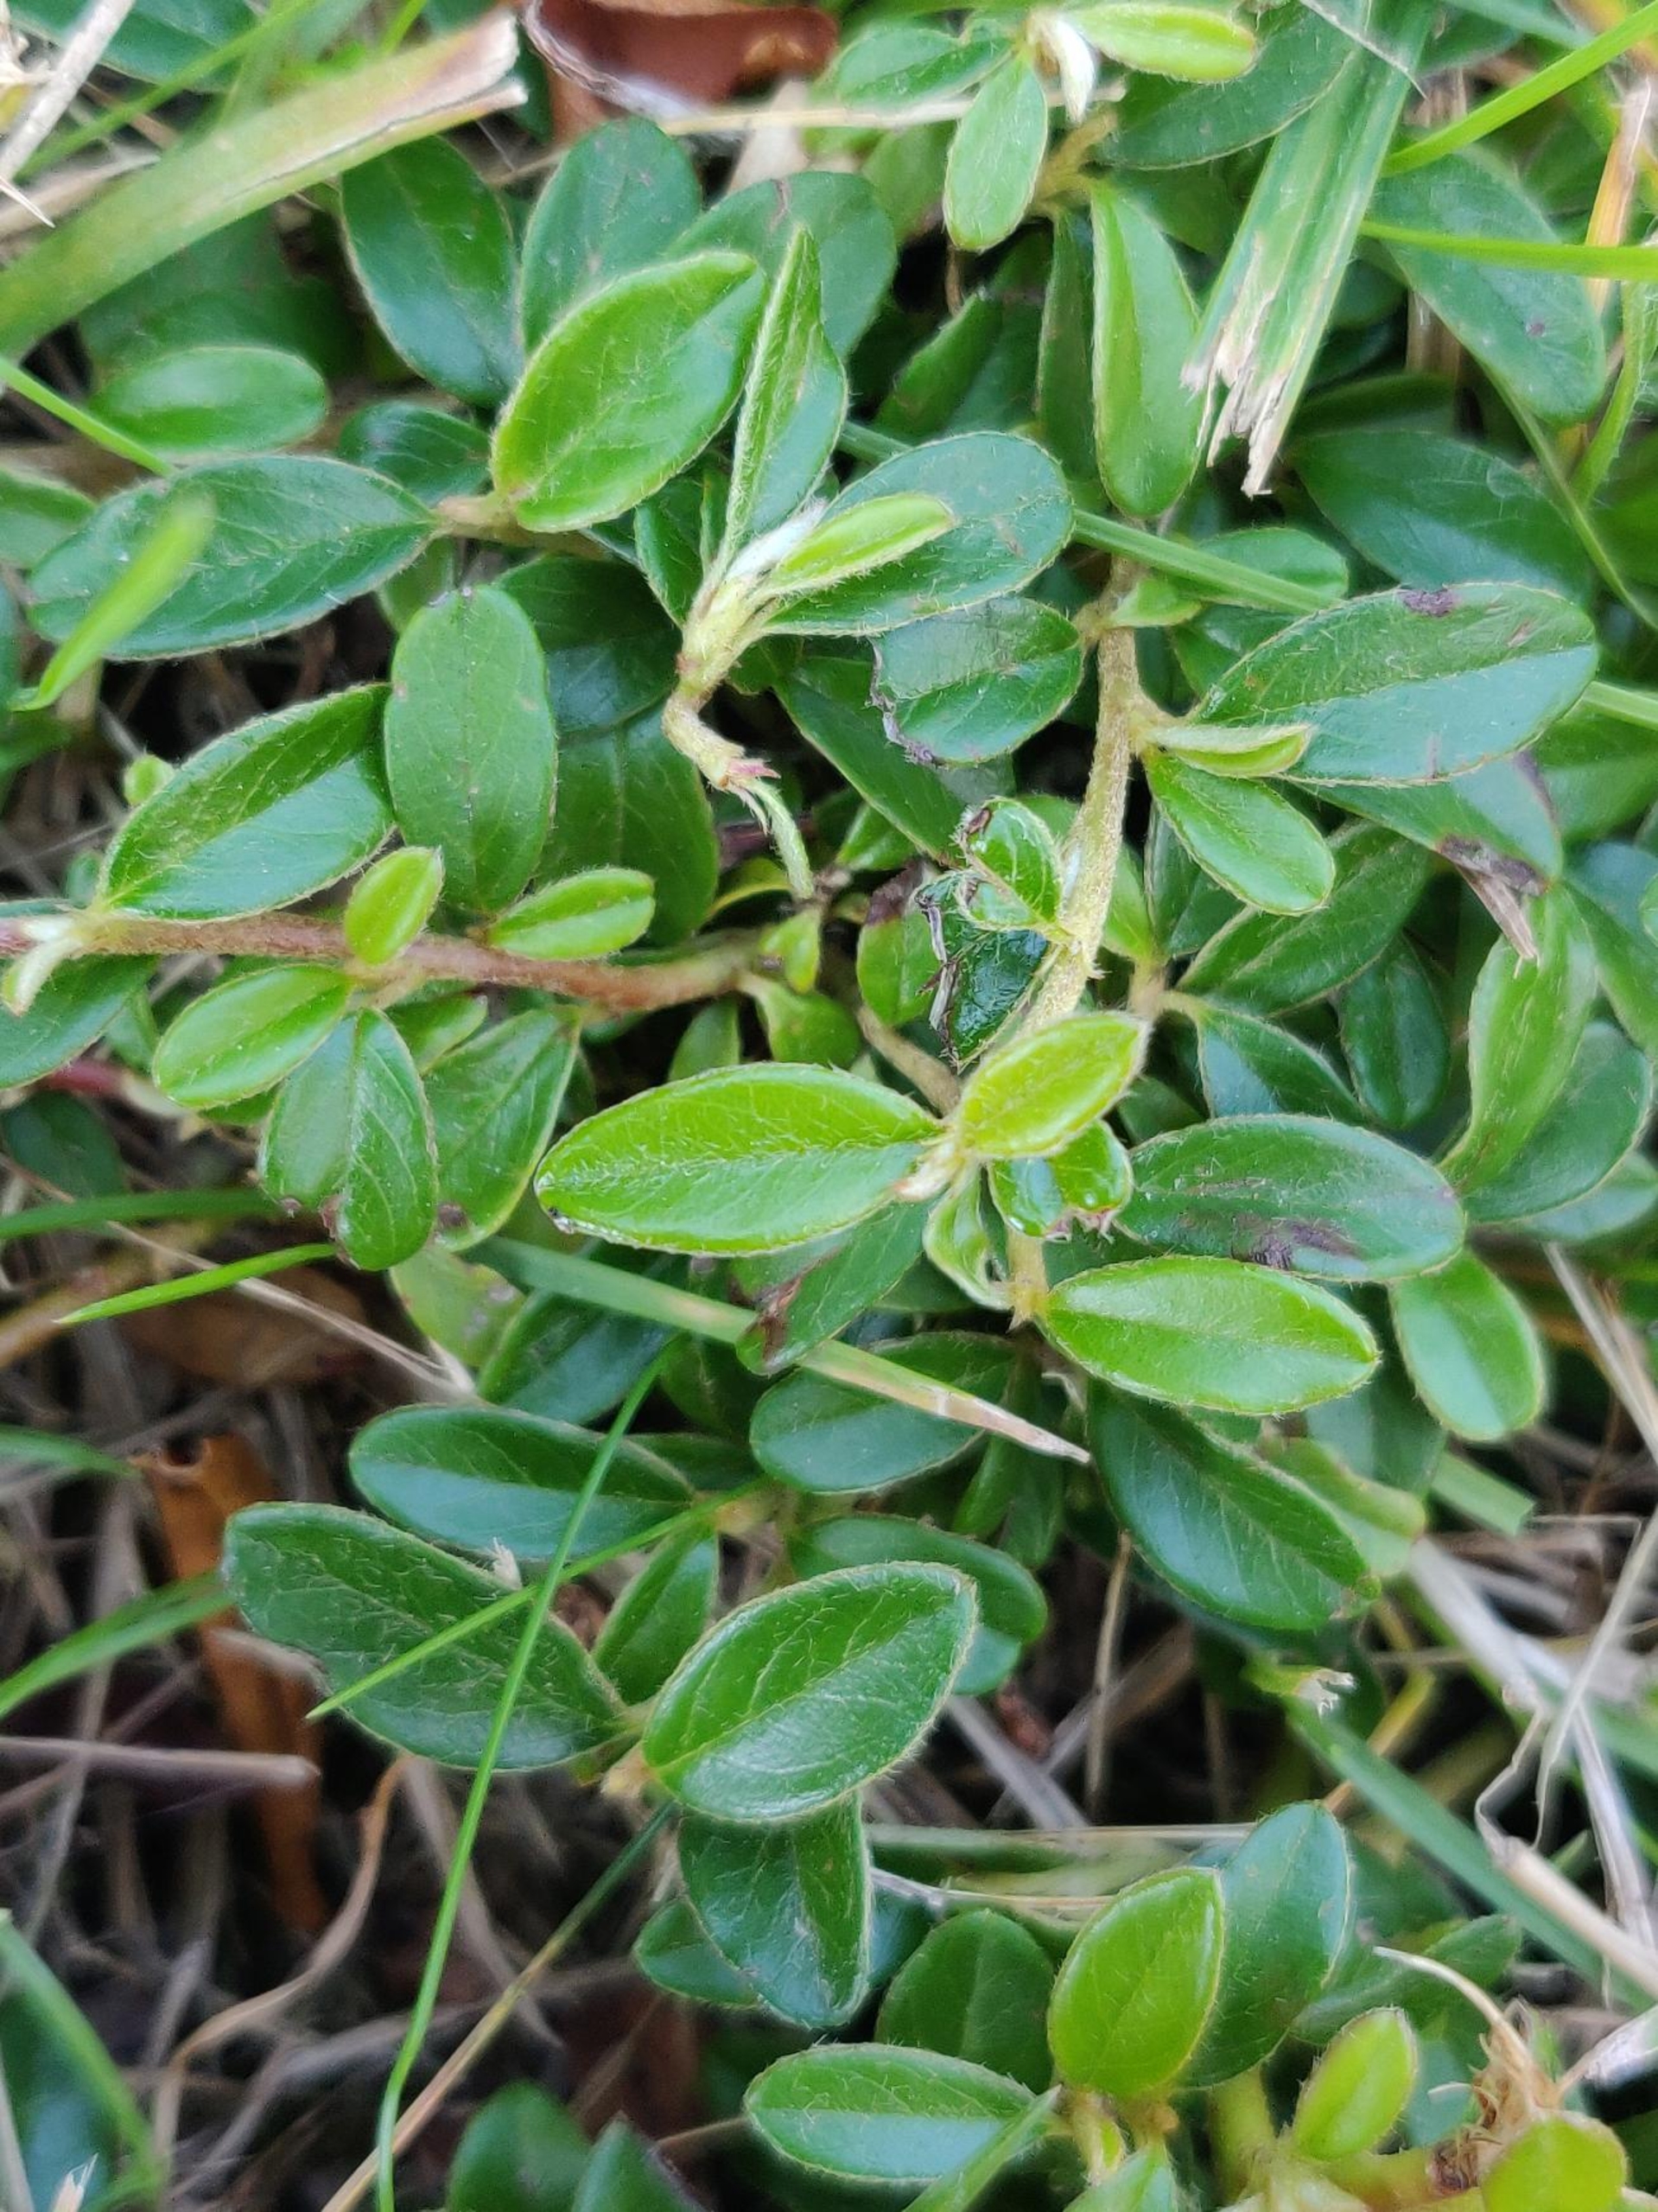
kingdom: Plantae
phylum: Tracheophyta
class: Magnoliopsida
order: Rosales
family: Rosaceae
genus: Cotoneaster
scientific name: Cotoneaster dammeri
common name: Krybende dværgmispel
